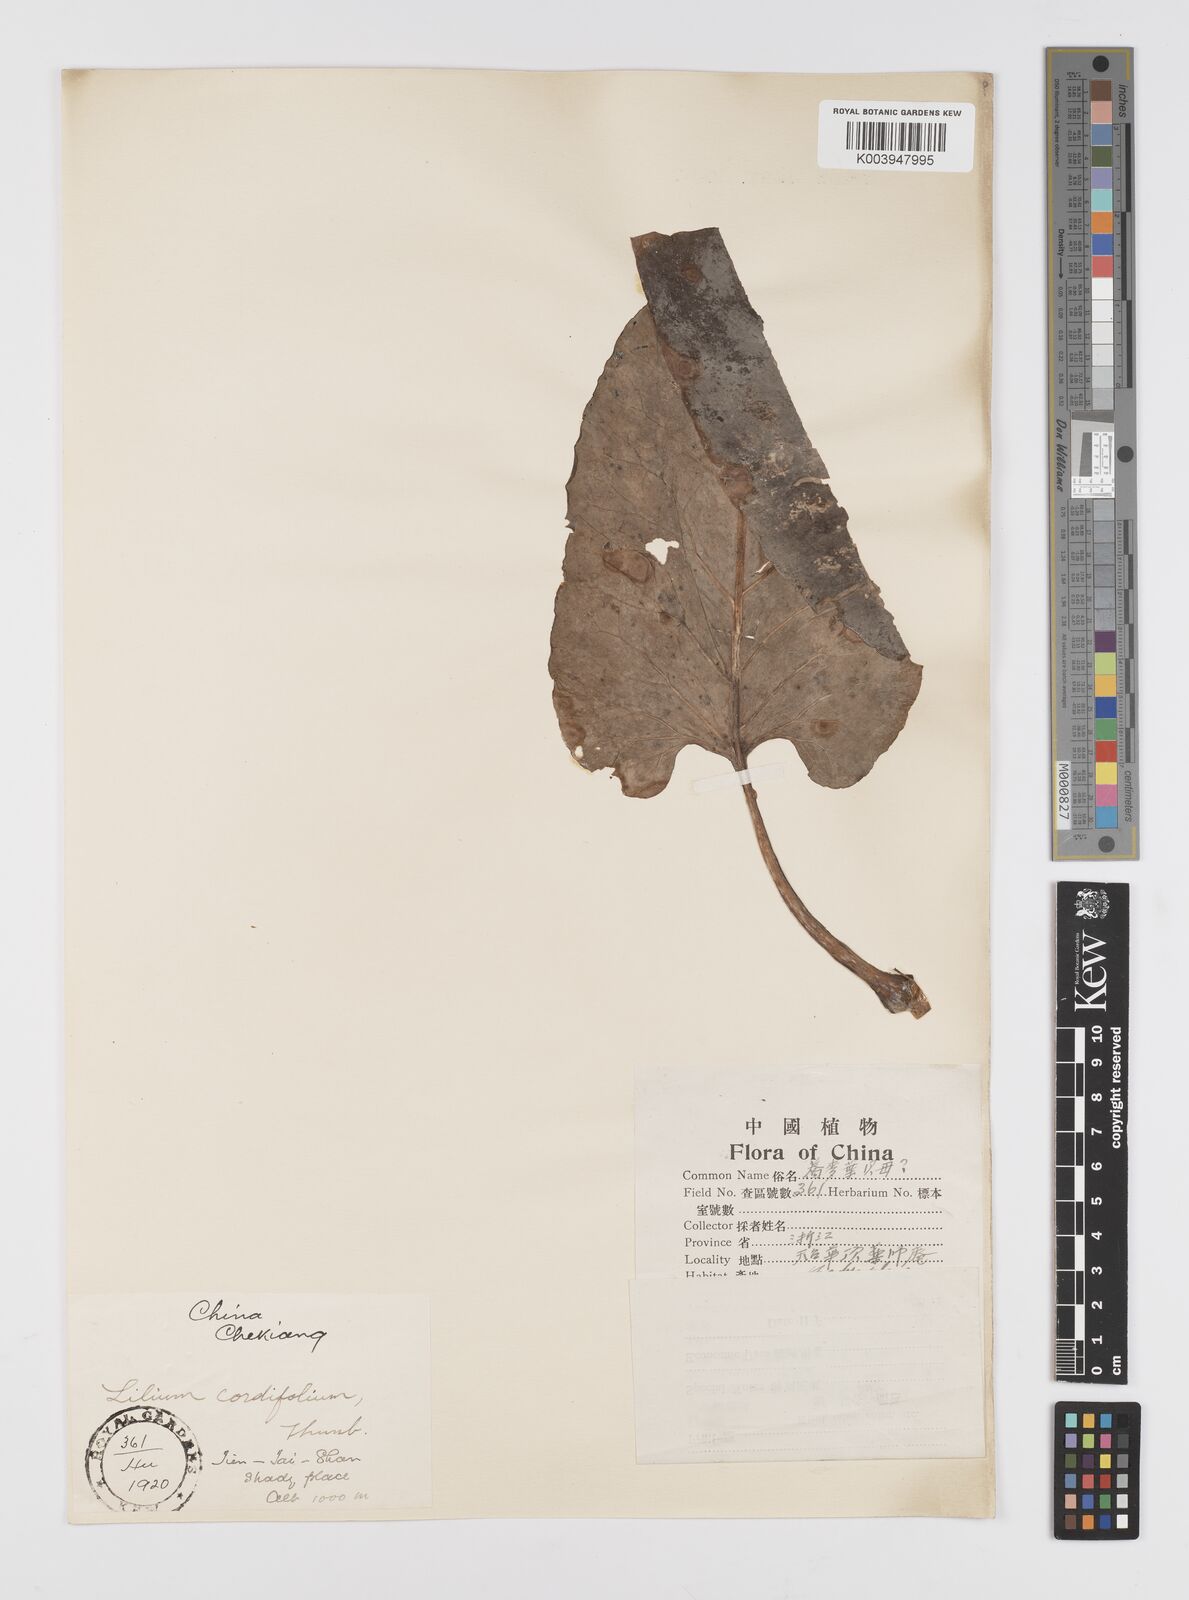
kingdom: Plantae
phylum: Tracheophyta
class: Liliopsida
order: Liliales
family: Liliaceae
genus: Cardiocrinum
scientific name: Cardiocrinum cathayanum
